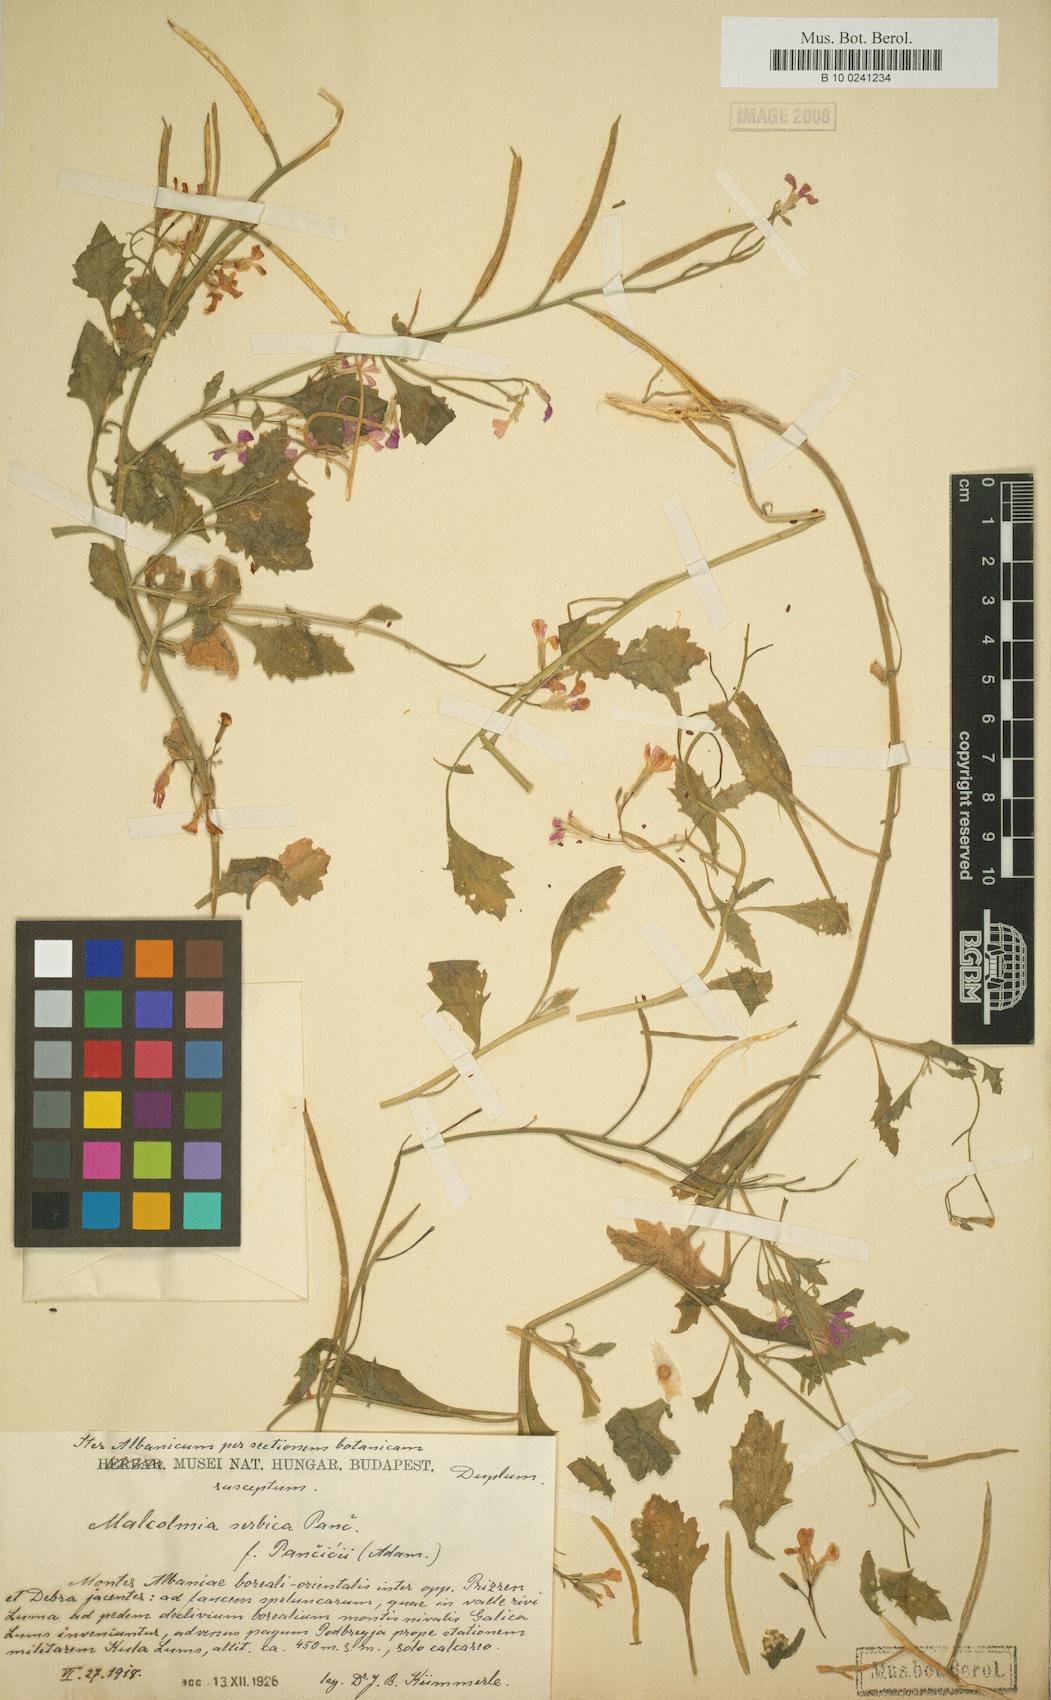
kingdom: Plantae
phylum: Tracheophyta
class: Magnoliopsida
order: Brassicales
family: Brassicaceae
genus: Malcolmia
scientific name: Malcolmia orsiniana
